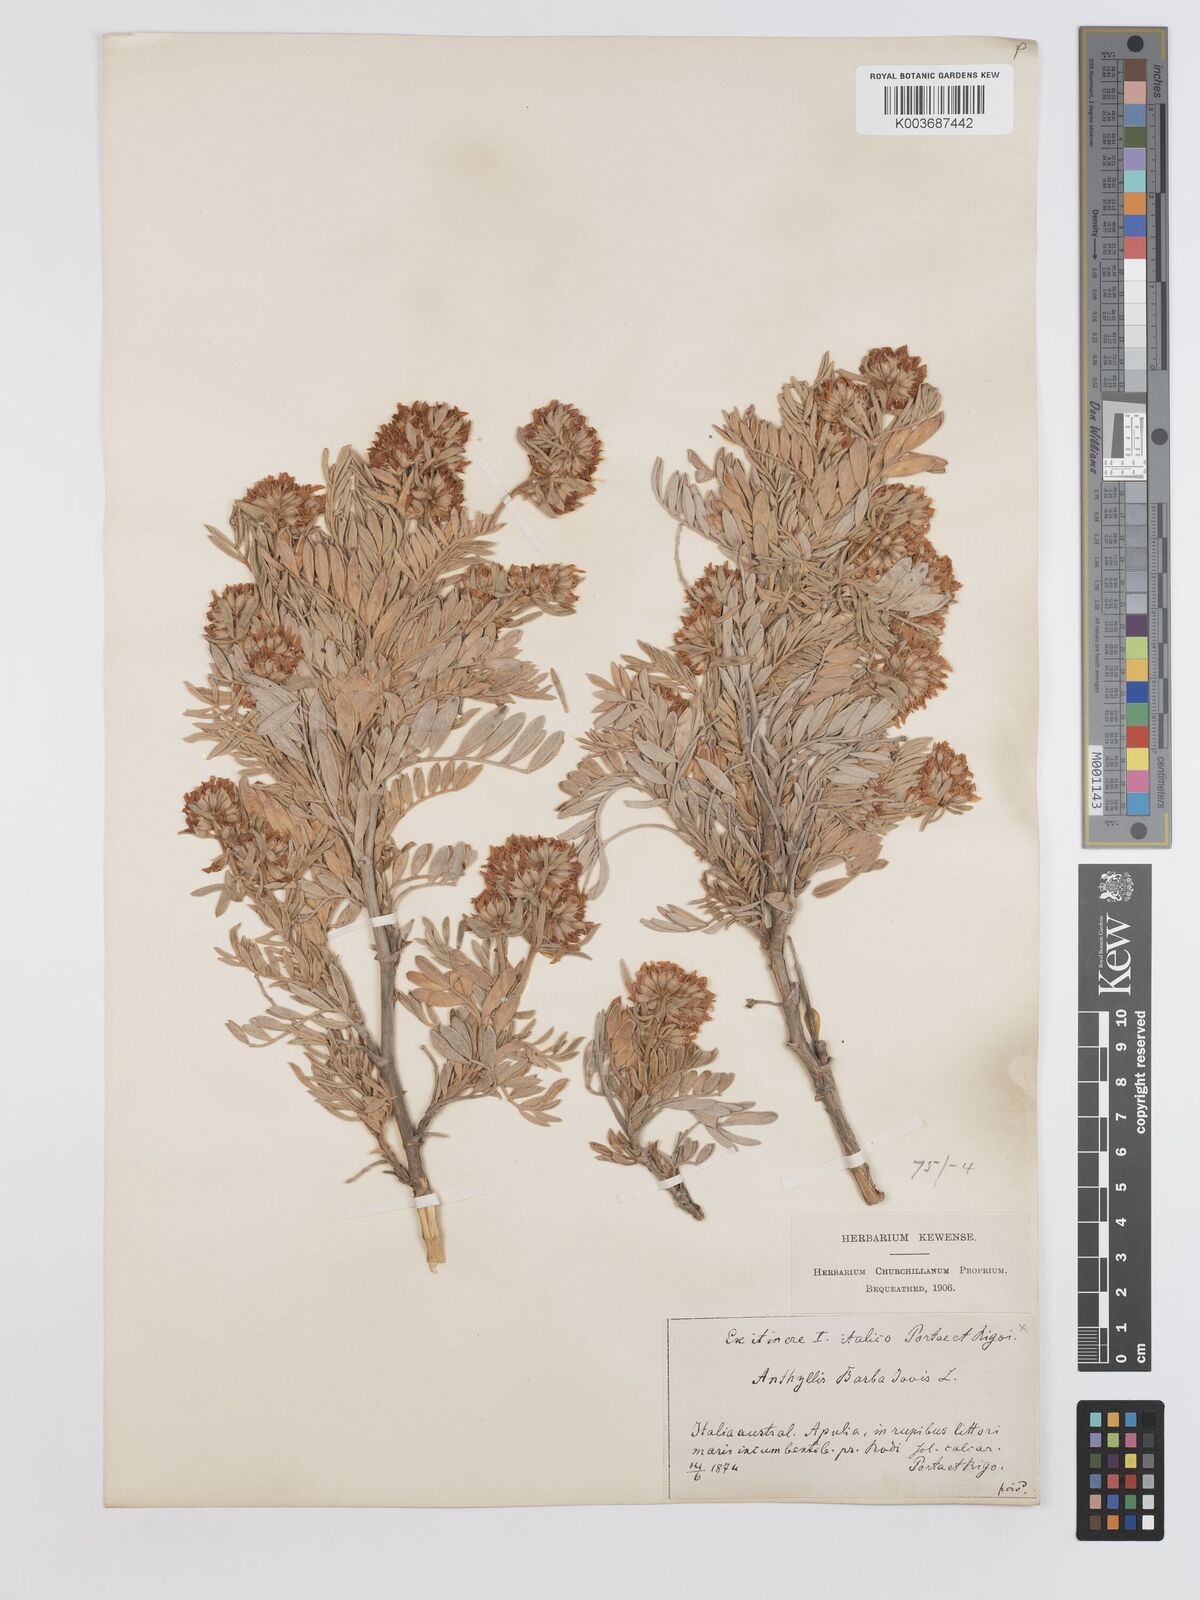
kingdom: Plantae
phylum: Tracheophyta
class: Magnoliopsida
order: Fabales
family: Fabaceae
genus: Anthyllis
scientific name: Anthyllis barba-jovis
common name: Jupiter's-beard
